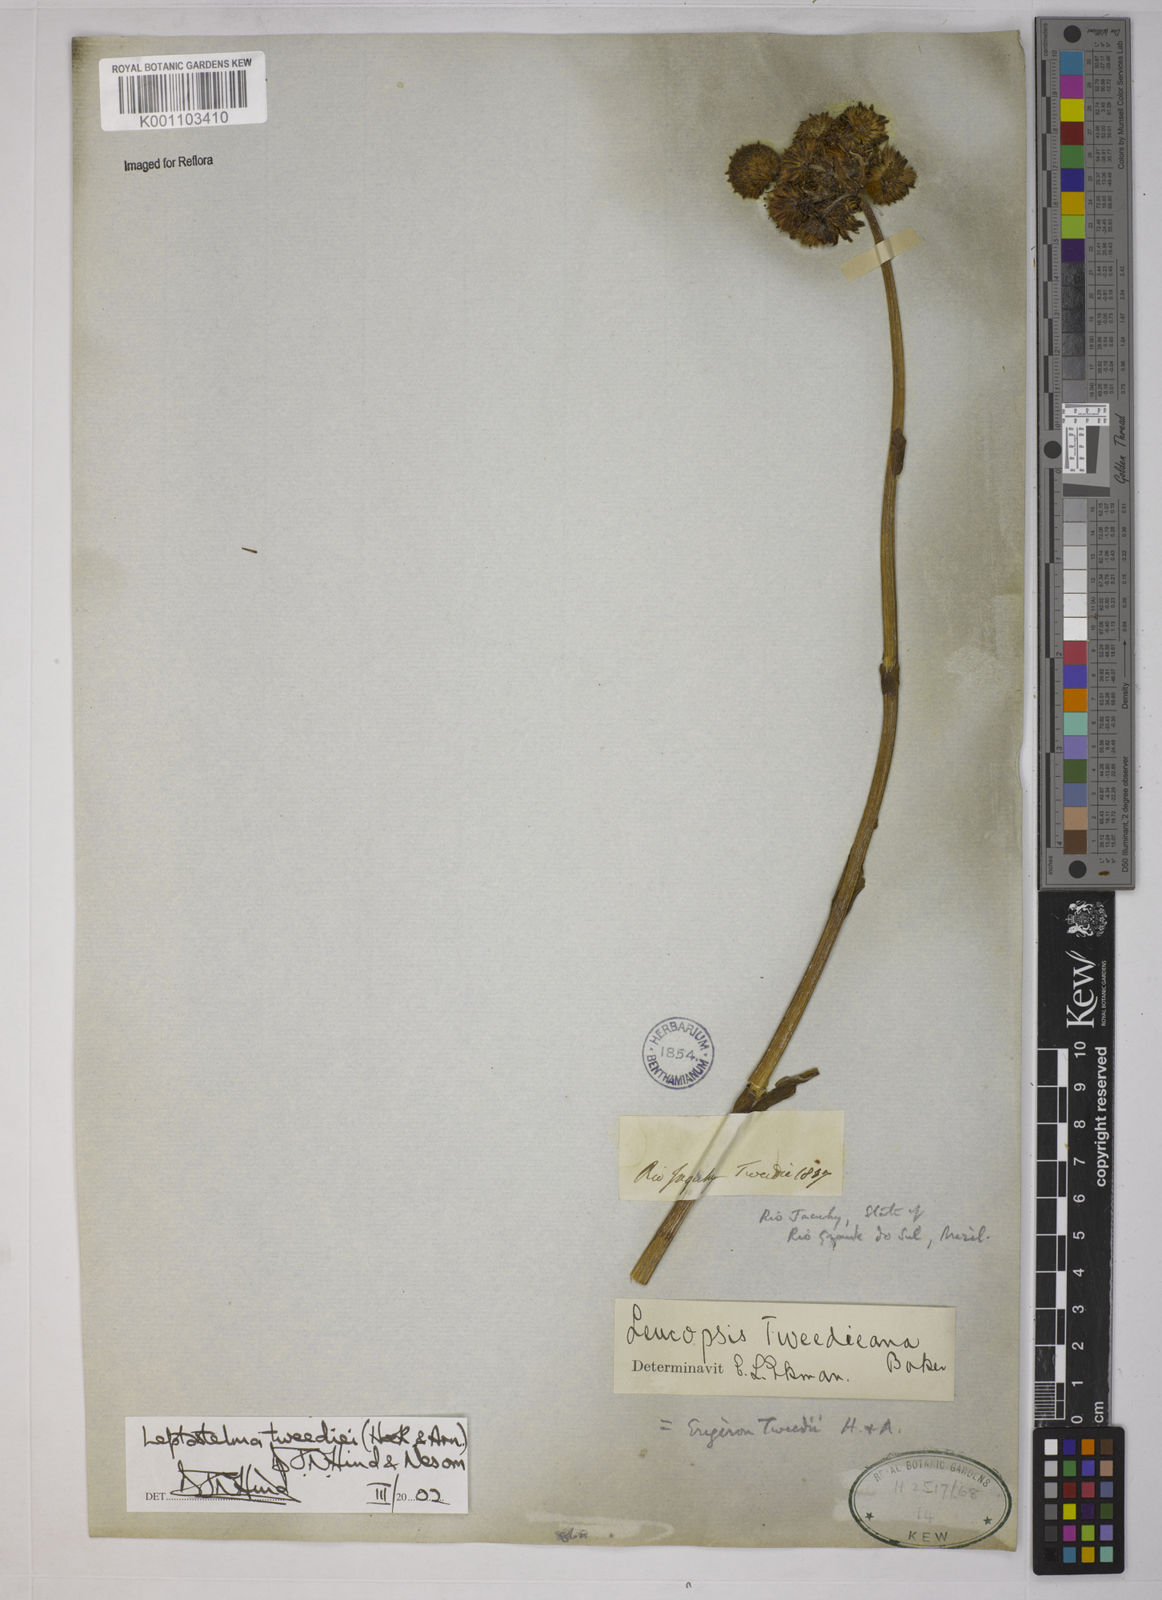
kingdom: Plantae
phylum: Tracheophyta
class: Magnoliopsida
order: Asterales
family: Asteraceae
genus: Leptostelma
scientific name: Leptostelma tweediei
